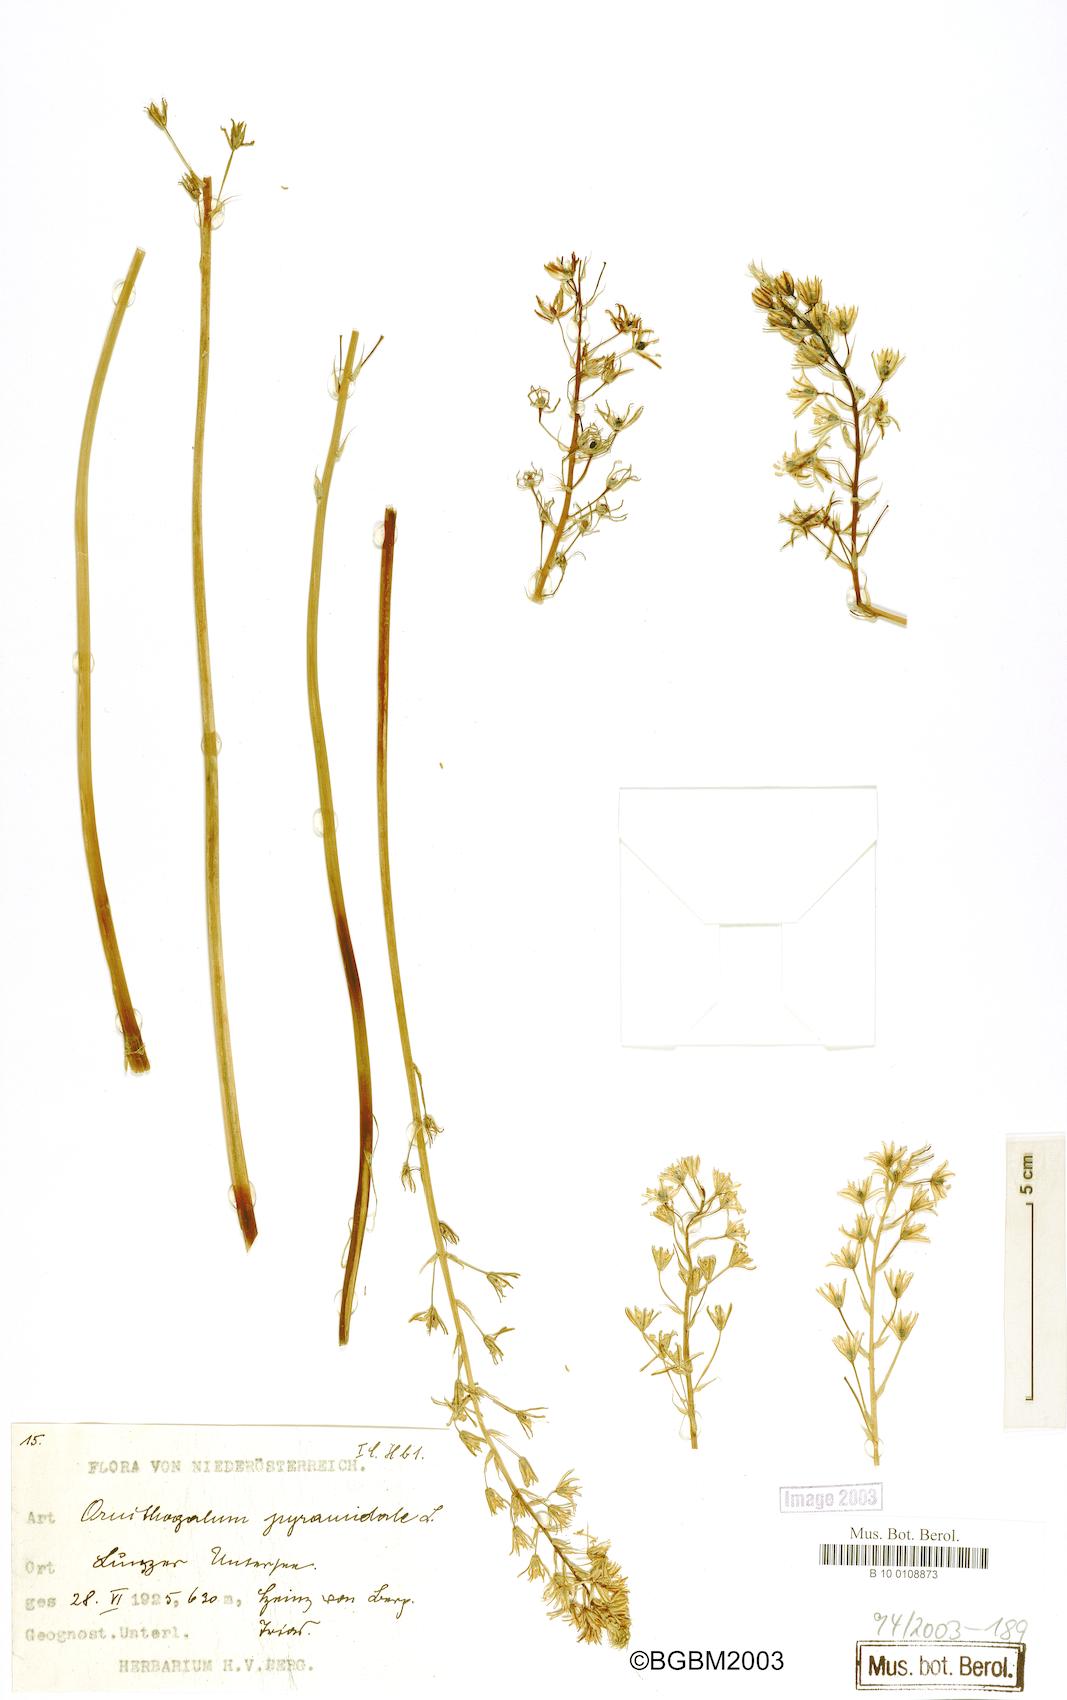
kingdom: Plantae
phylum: Tracheophyta
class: Liliopsida
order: Asparagales
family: Asparagaceae
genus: Ornithogalum
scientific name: Ornithogalum pyramidale
